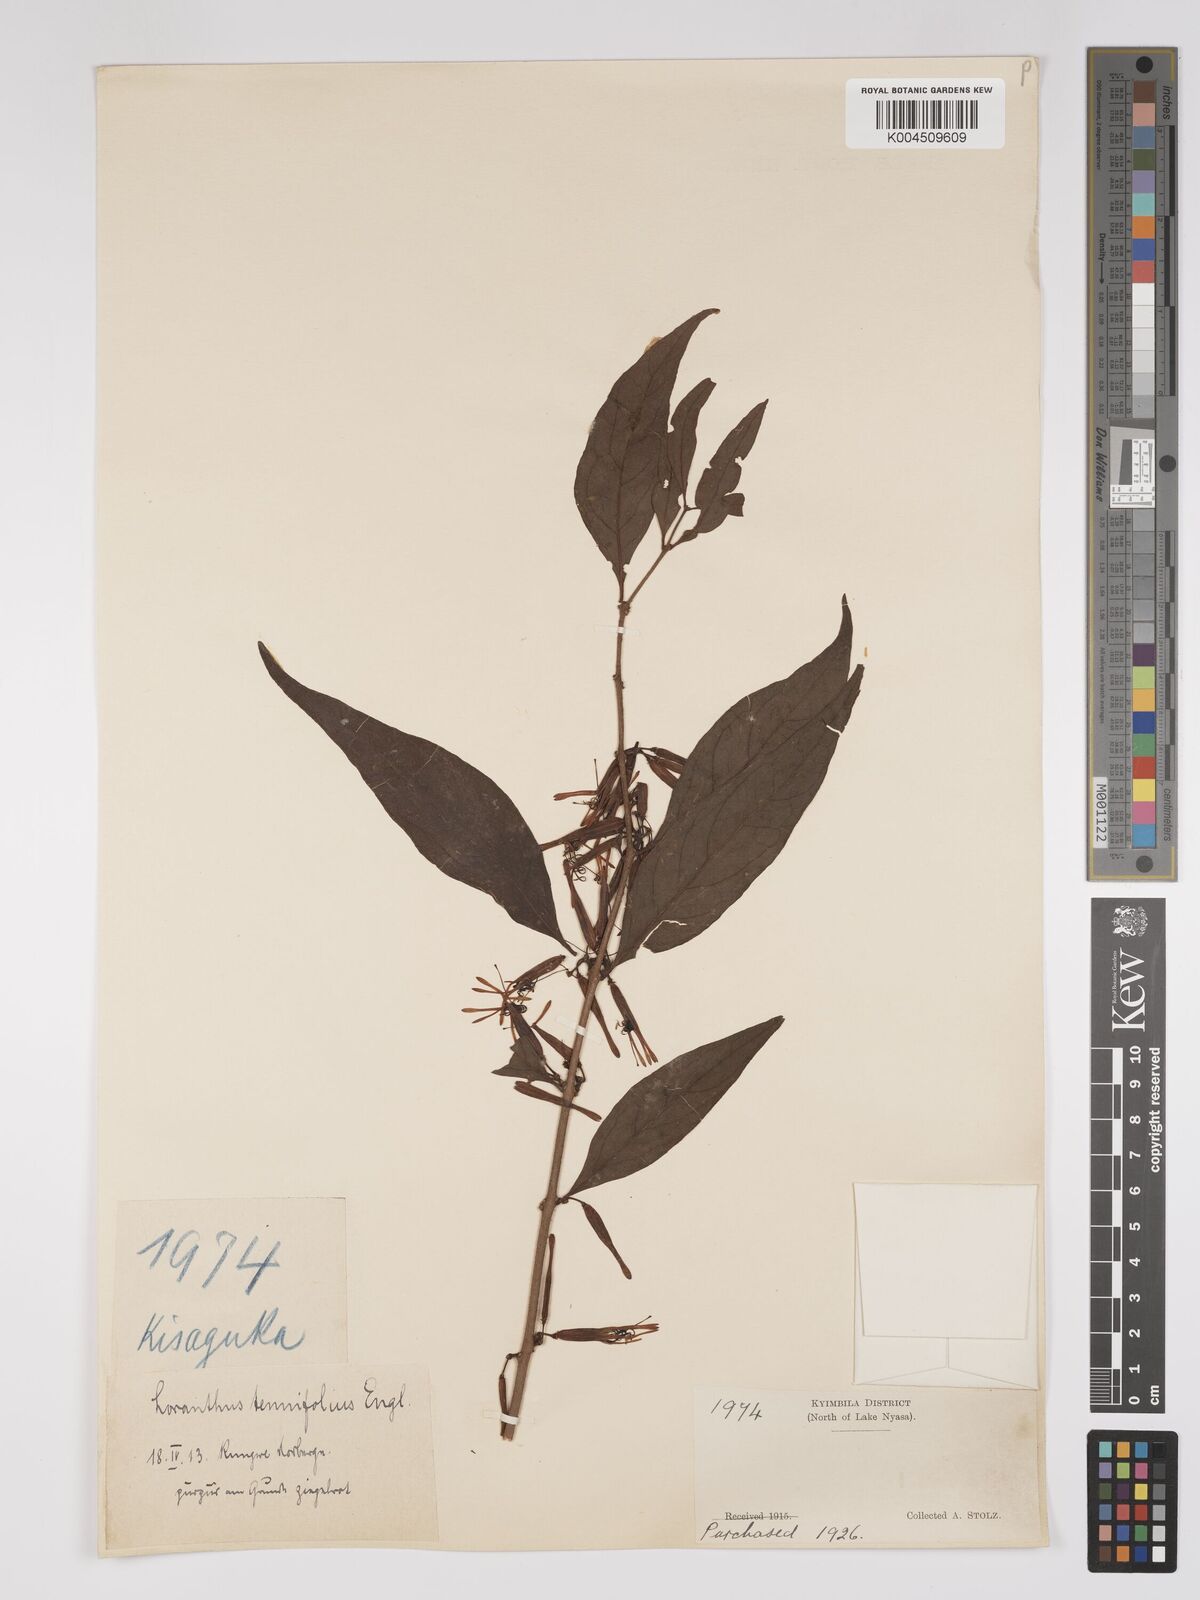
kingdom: Plantae
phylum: Tracheophyta
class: Magnoliopsida
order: Santalales
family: Loranthaceae
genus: Englerina
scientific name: Englerina inaequilatera
